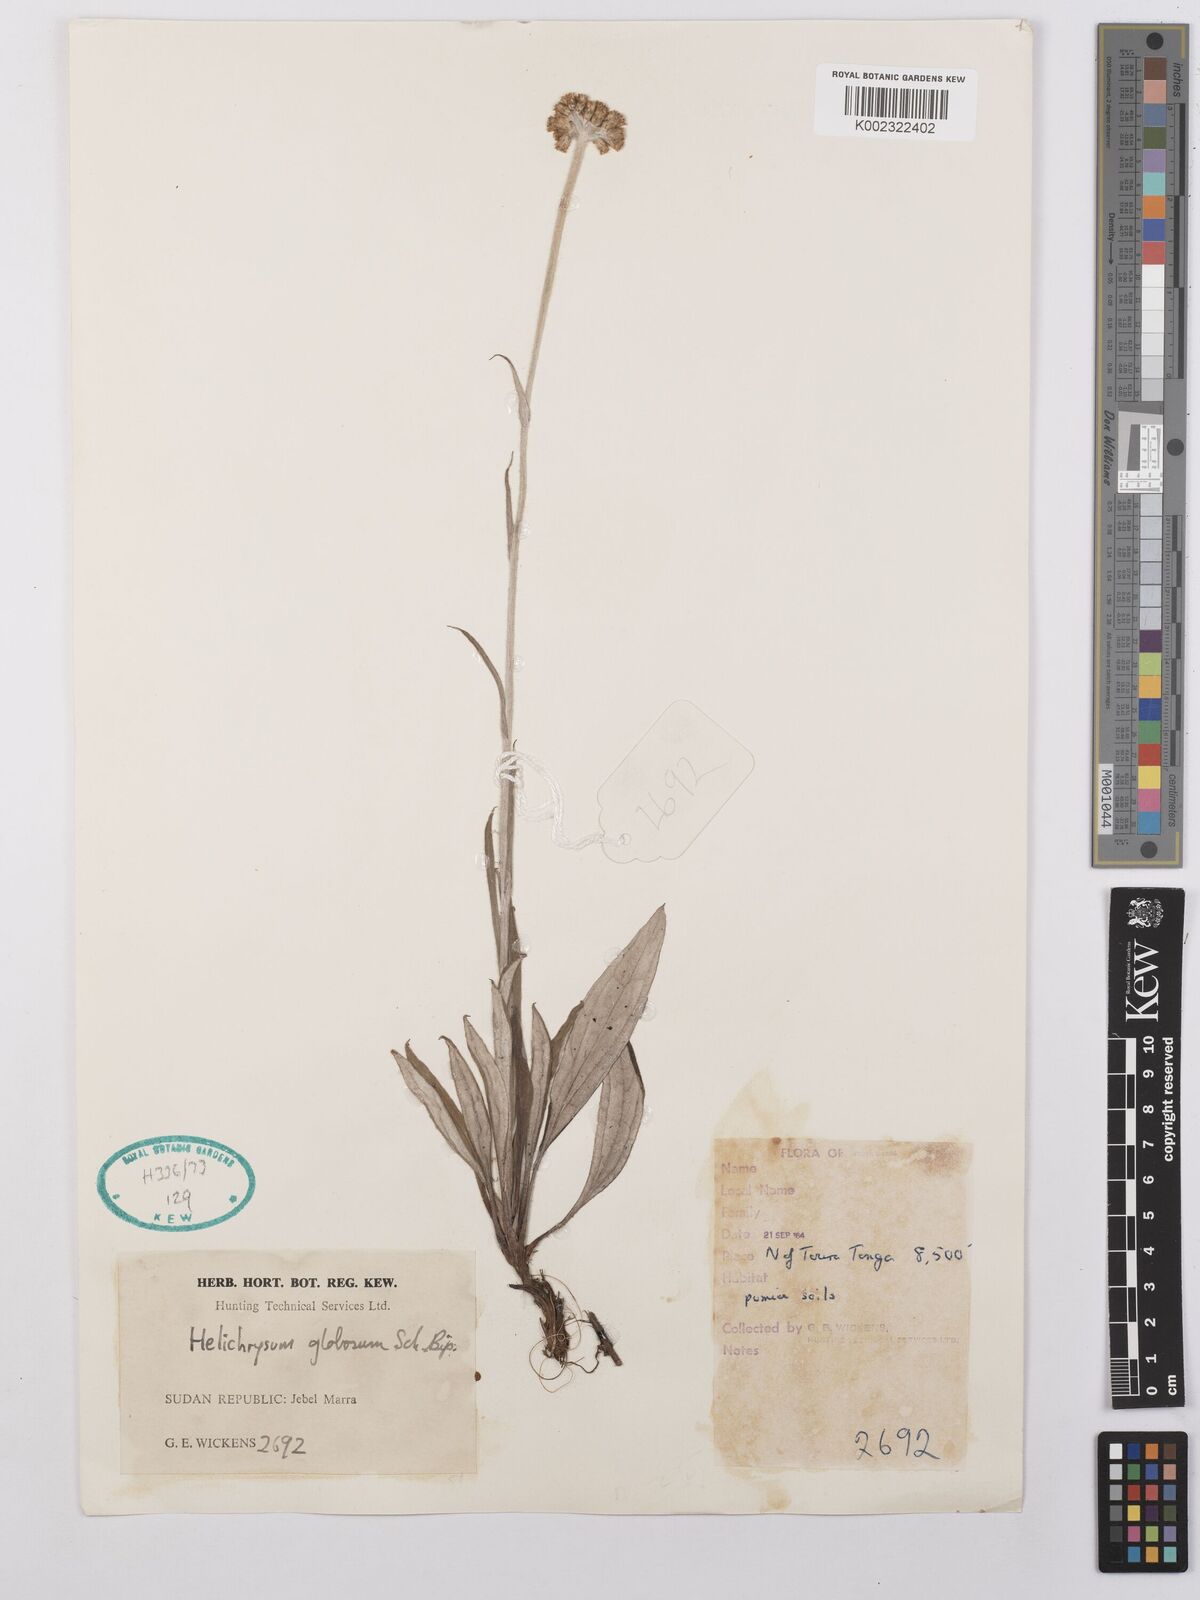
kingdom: Plantae
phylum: Tracheophyta
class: Magnoliopsida
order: Asterales
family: Asteraceae
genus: Helichrysum
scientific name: Helichrysum globosum
